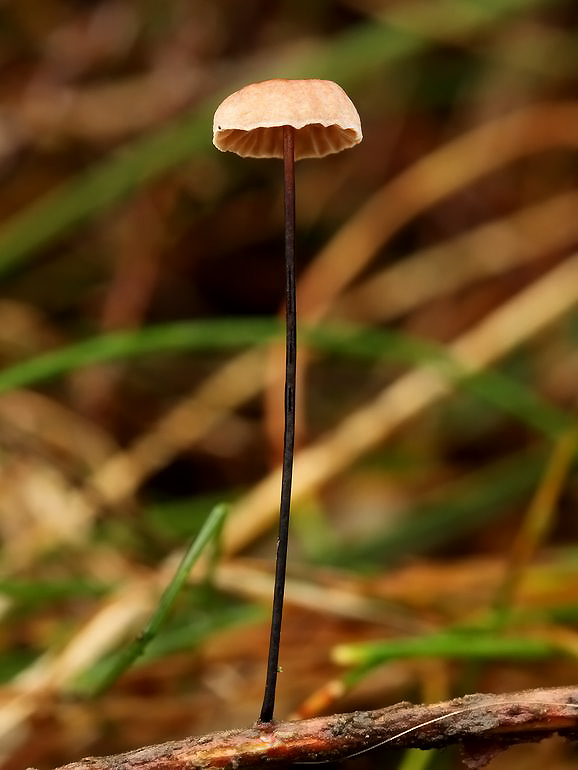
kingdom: Fungi
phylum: Basidiomycota
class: Agaricomycetes
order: Agaricales
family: Omphalotaceae
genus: Gymnopus
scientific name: Gymnopus androsaceus
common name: trådstokket fladhat
